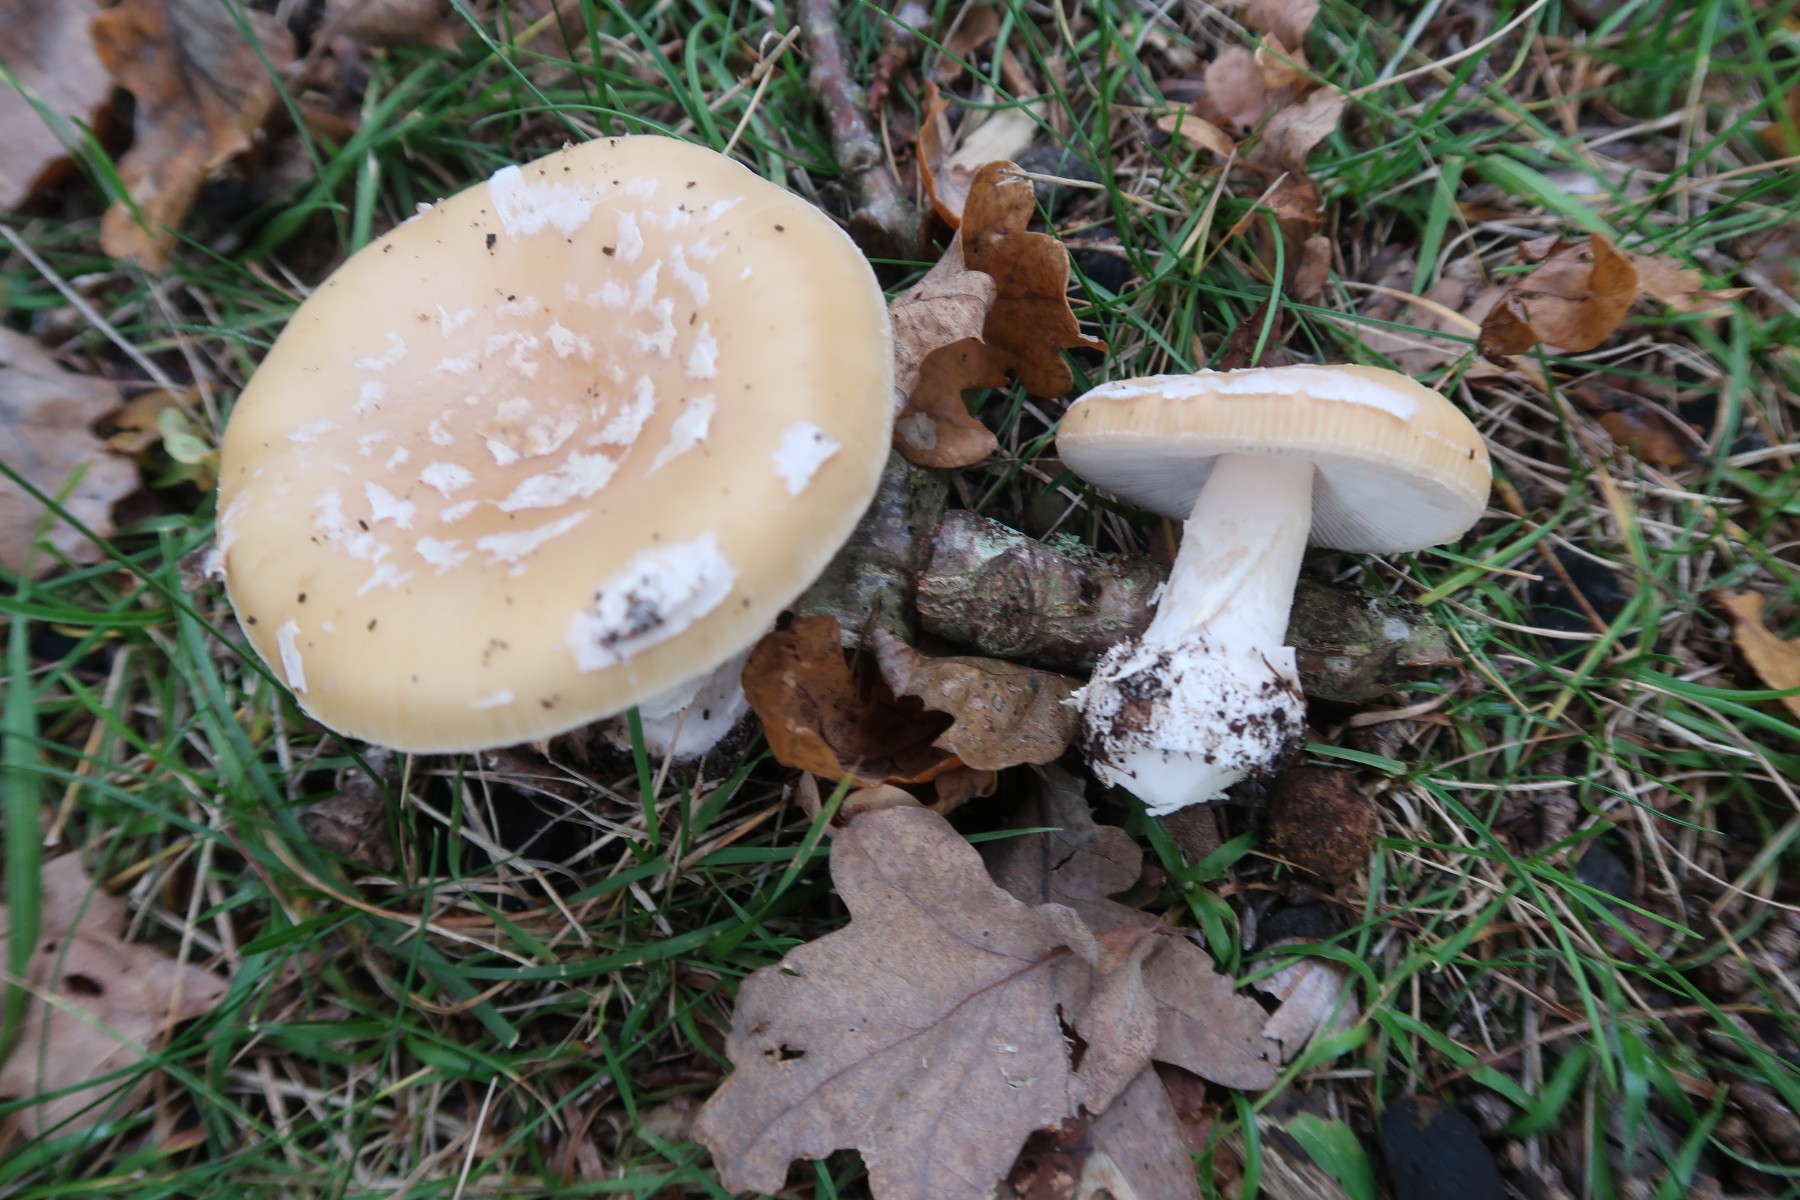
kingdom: Fungi
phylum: Basidiomycota
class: Agaricomycetes
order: Agaricales
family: Amanitaceae
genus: Amanita
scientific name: Amanita gemmata
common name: okkergul fluesvamp
